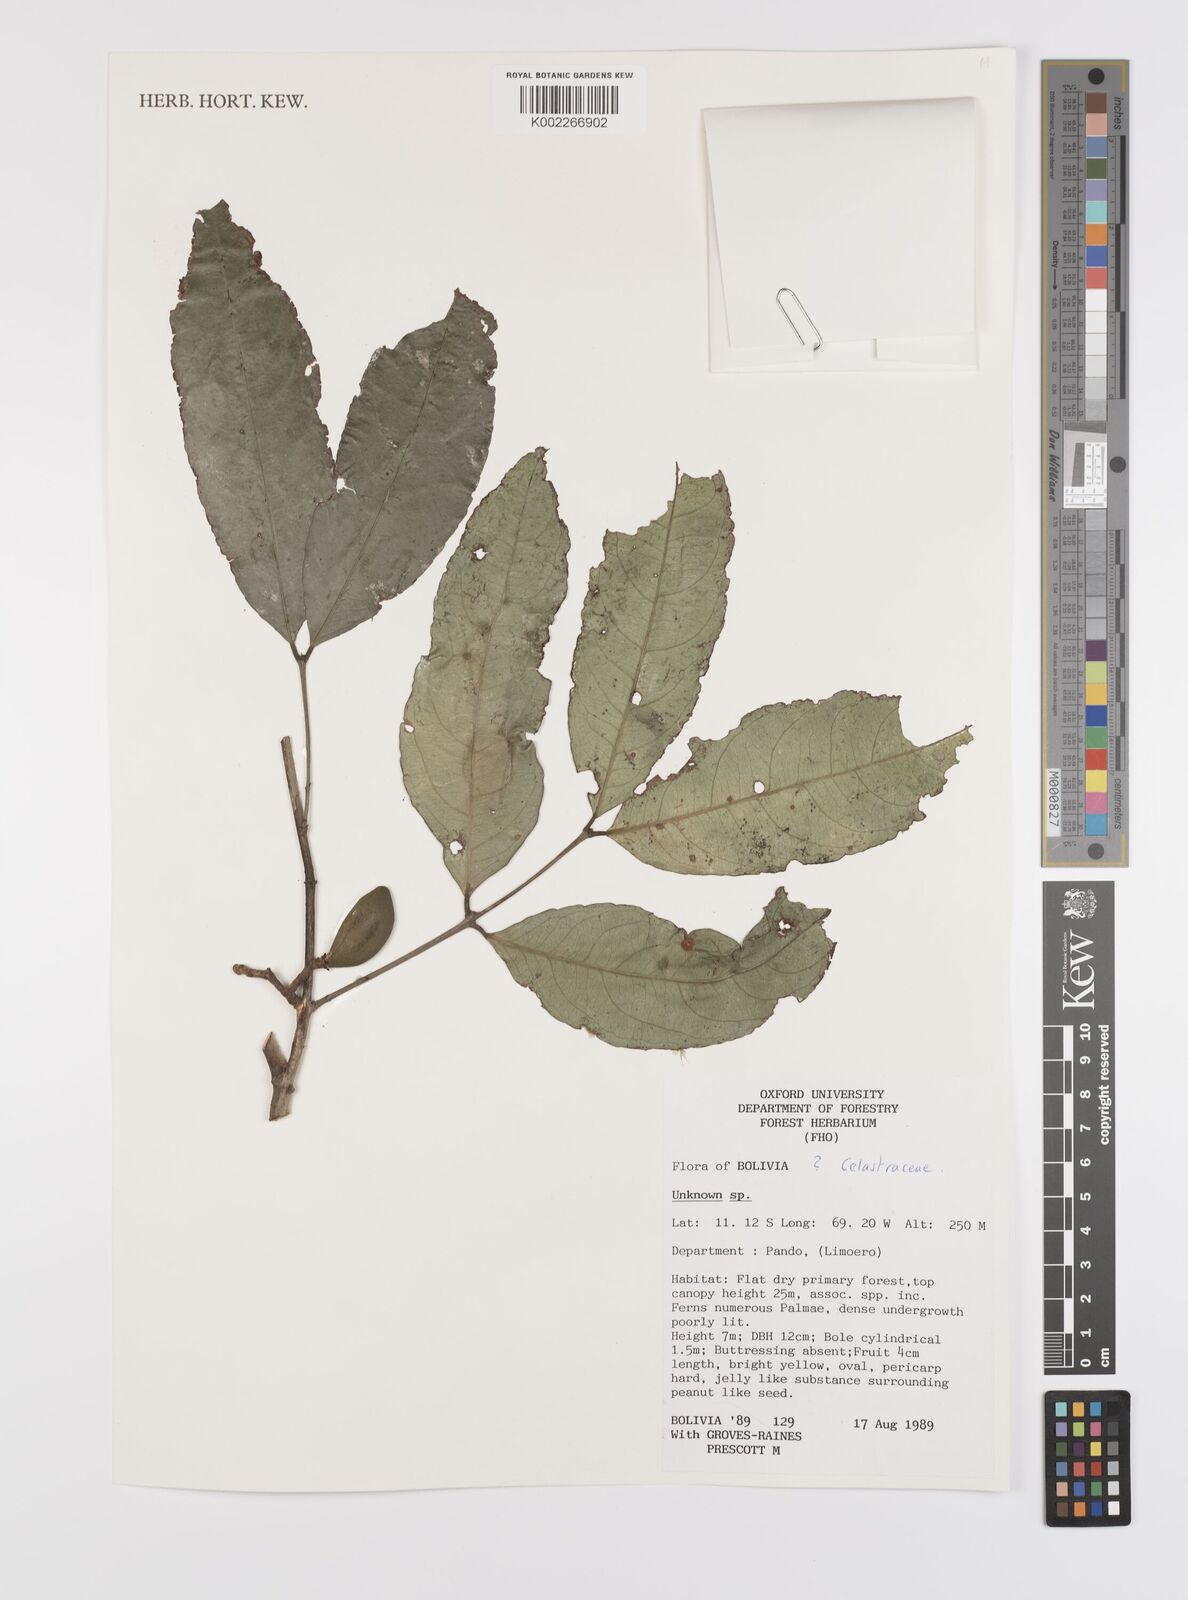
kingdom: Plantae
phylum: Tracheophyta
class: Magnoliopsida
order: Celastrales
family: Celastraceae
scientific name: Celastraceae
